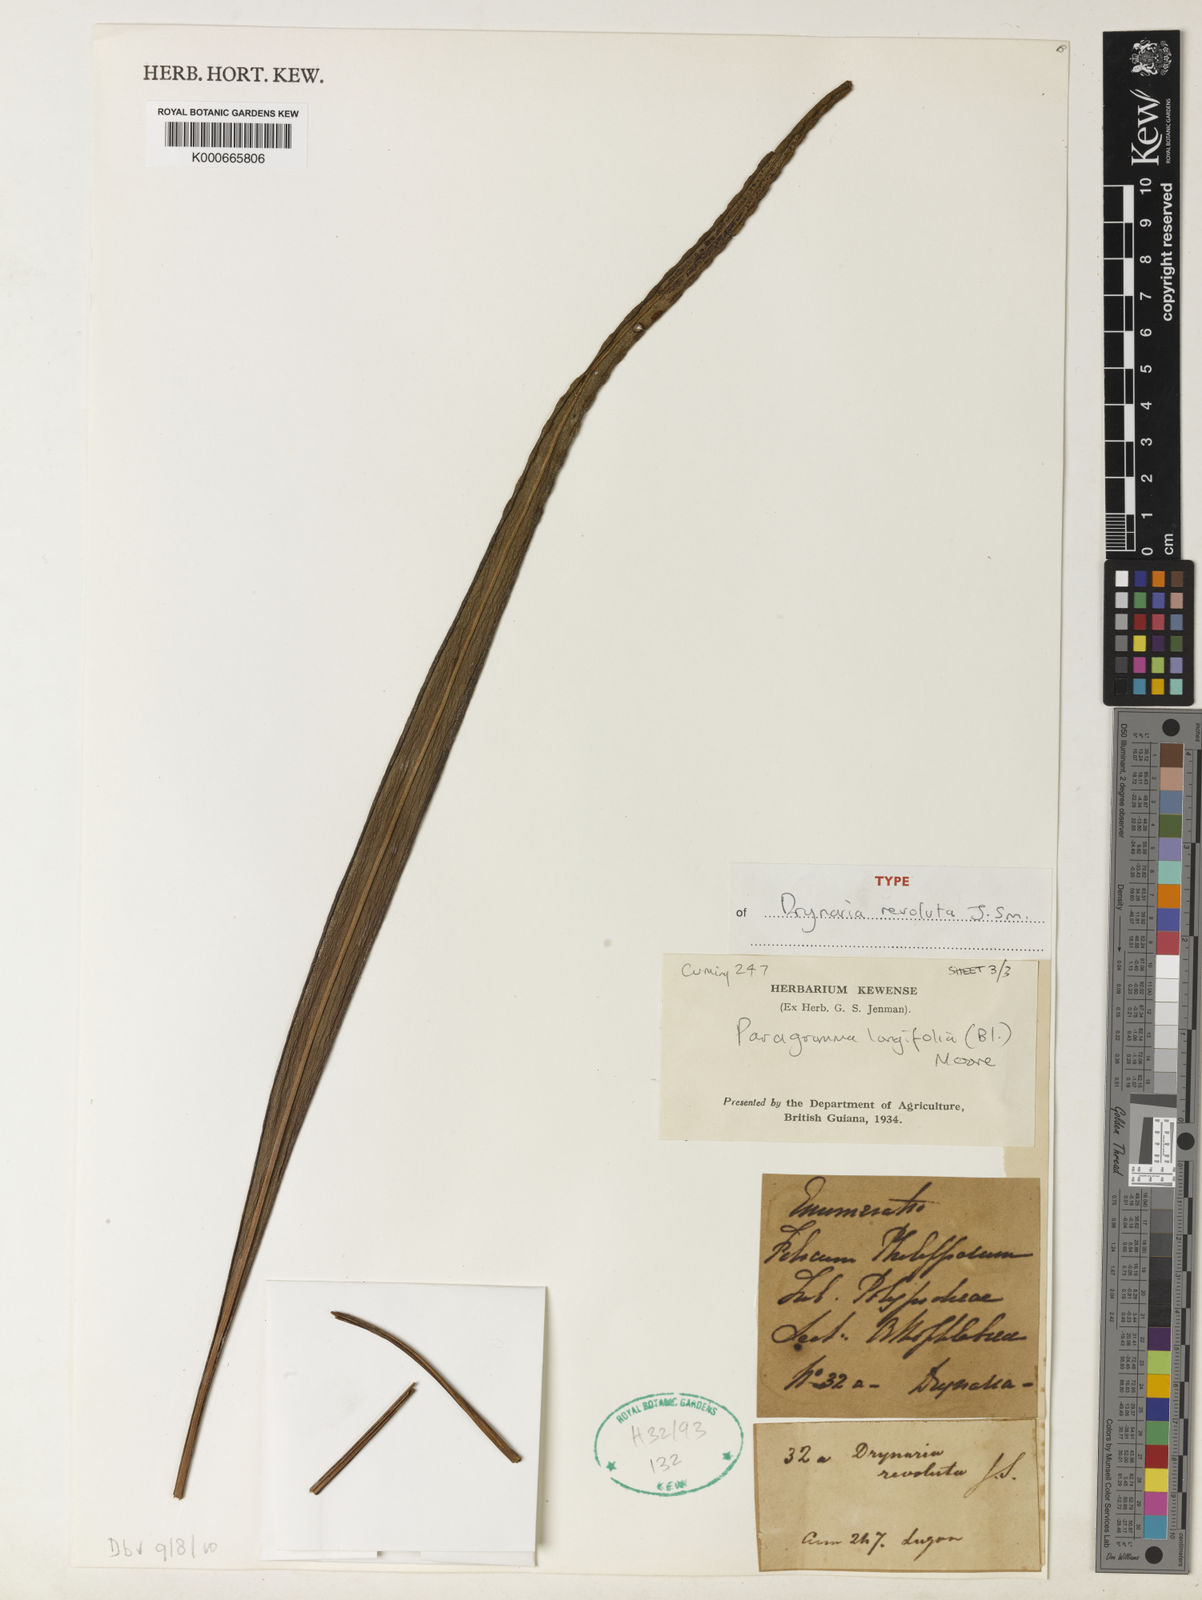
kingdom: Plantae
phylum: Tracheophyta
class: Polypodiopsida
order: Polypodiales
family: Polypodiaceae
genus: Lepisorus
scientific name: Lepisorus longifolius
